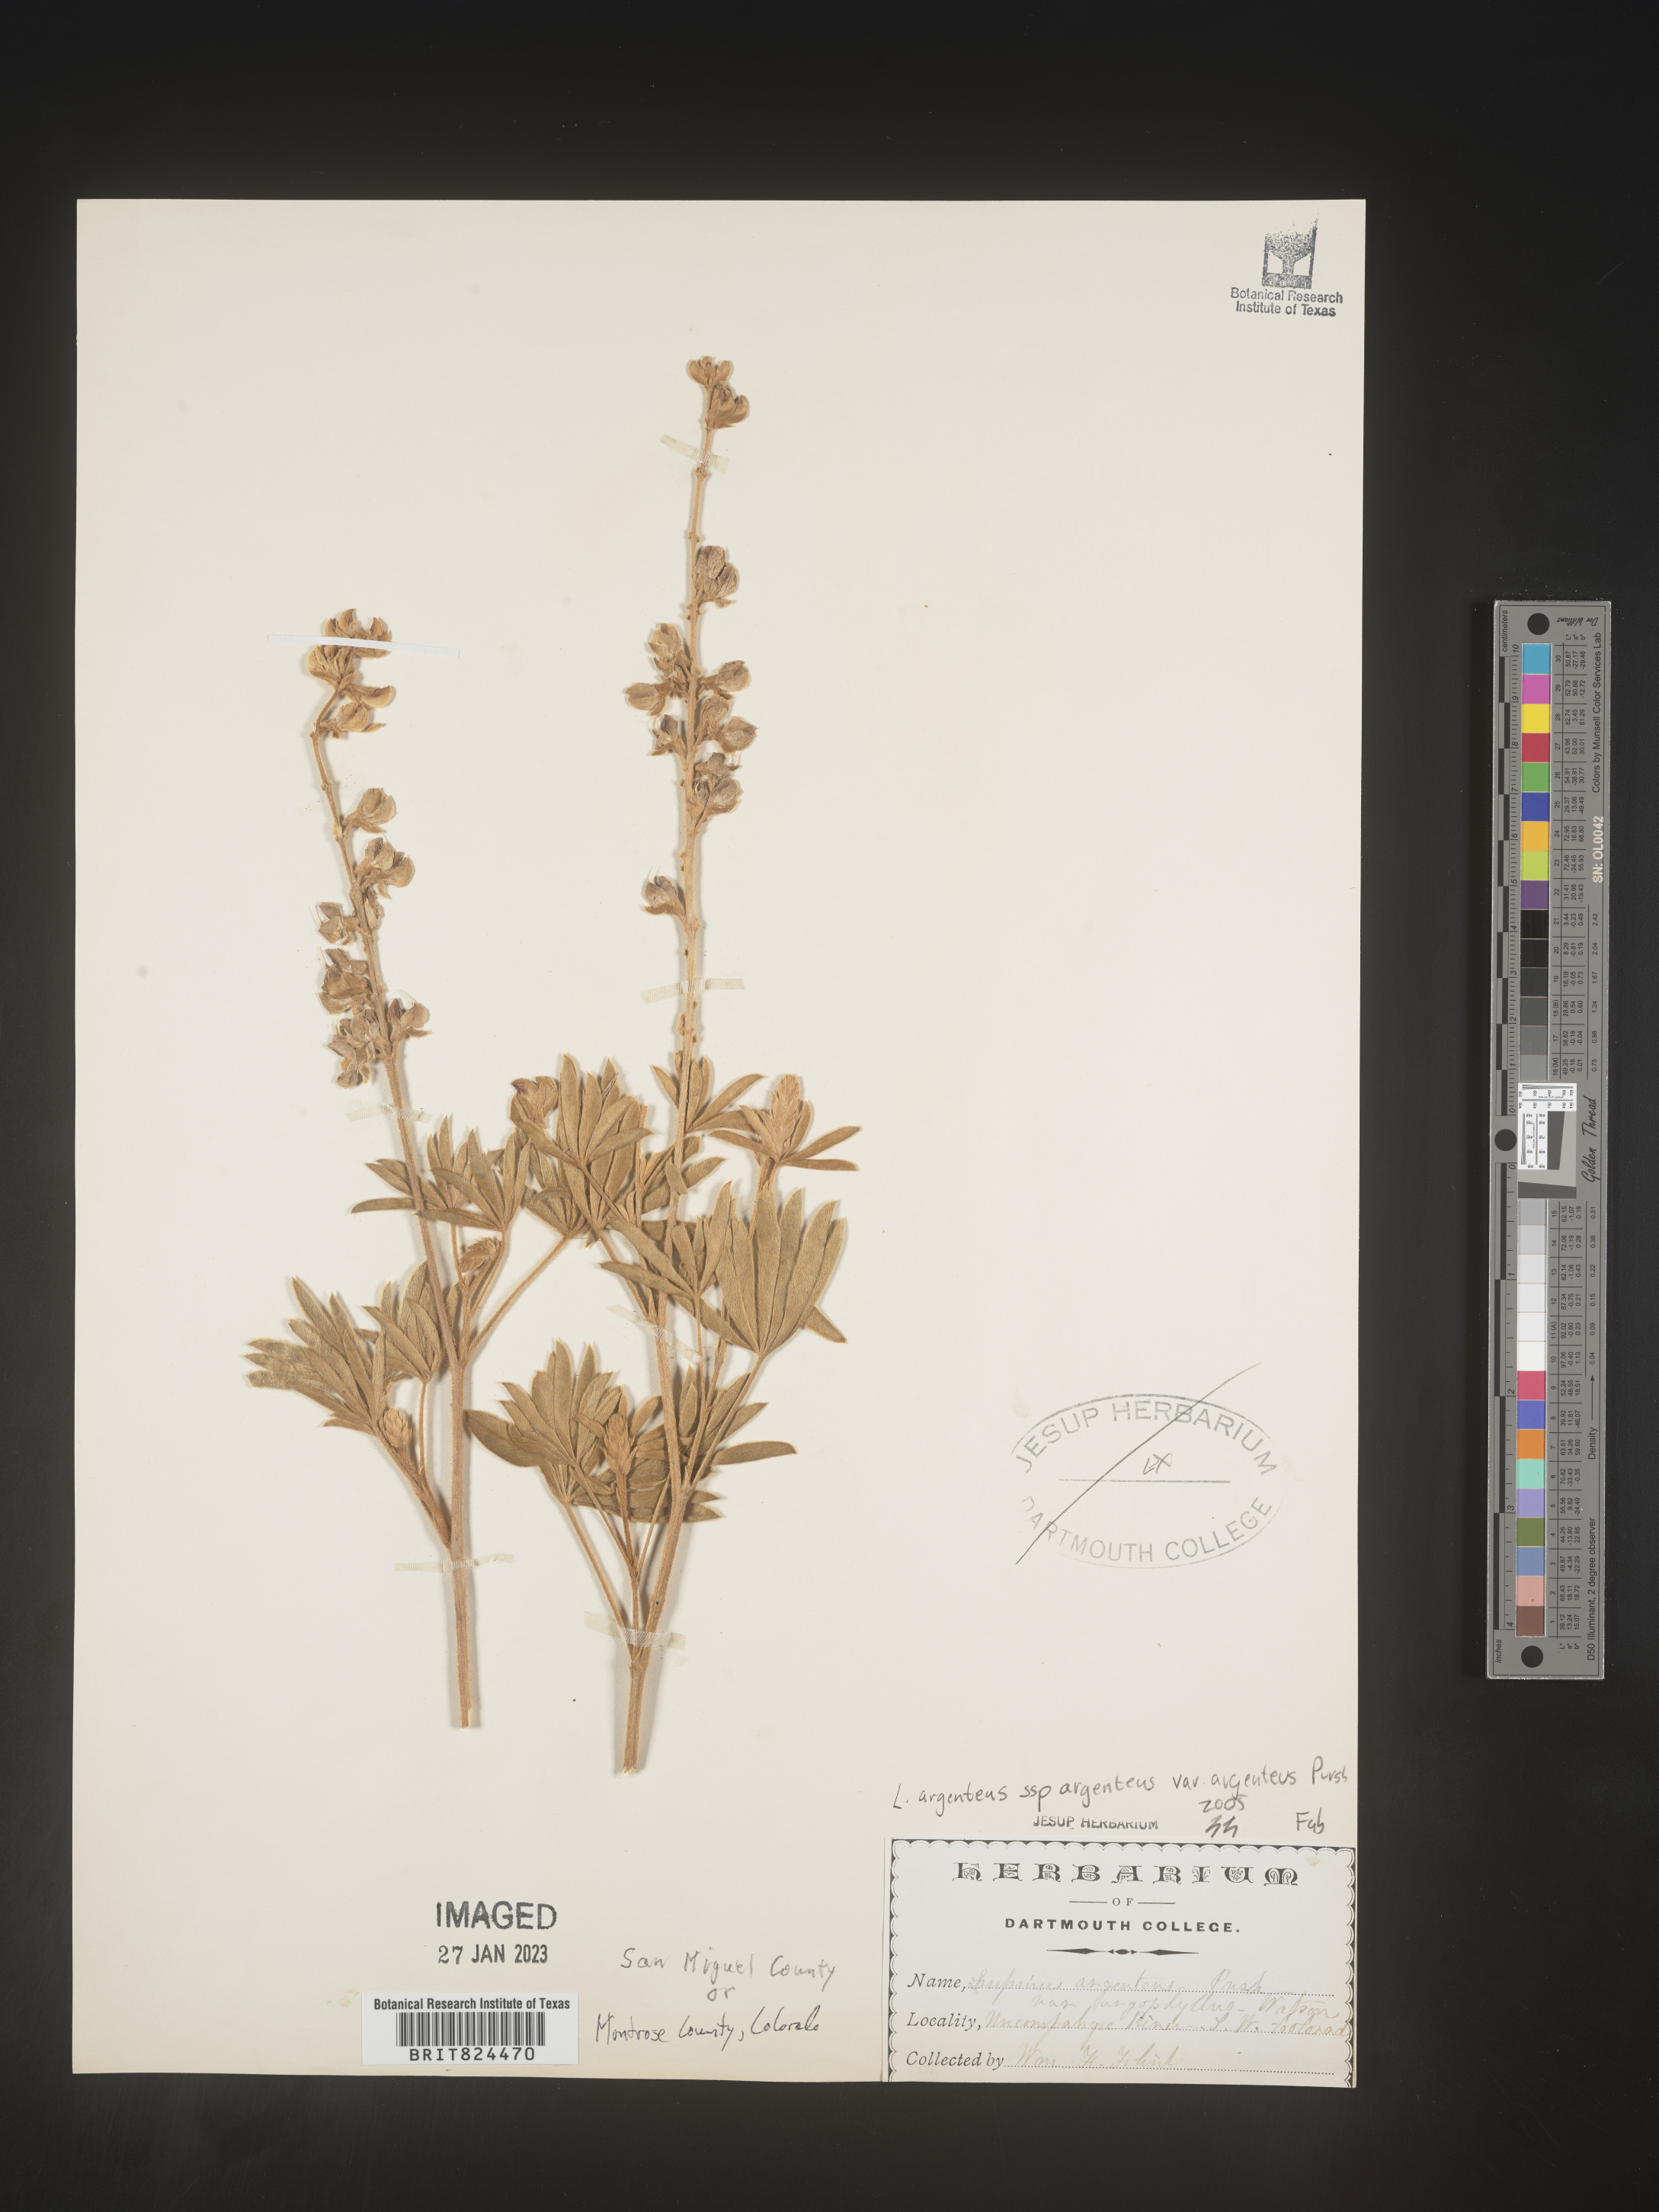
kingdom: Plantae
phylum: Tracheophyta
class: Magnoliopsida
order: Fabales
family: Fabaceae
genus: Lupinus
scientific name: Lupinus argenteus
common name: Silvery lupine
